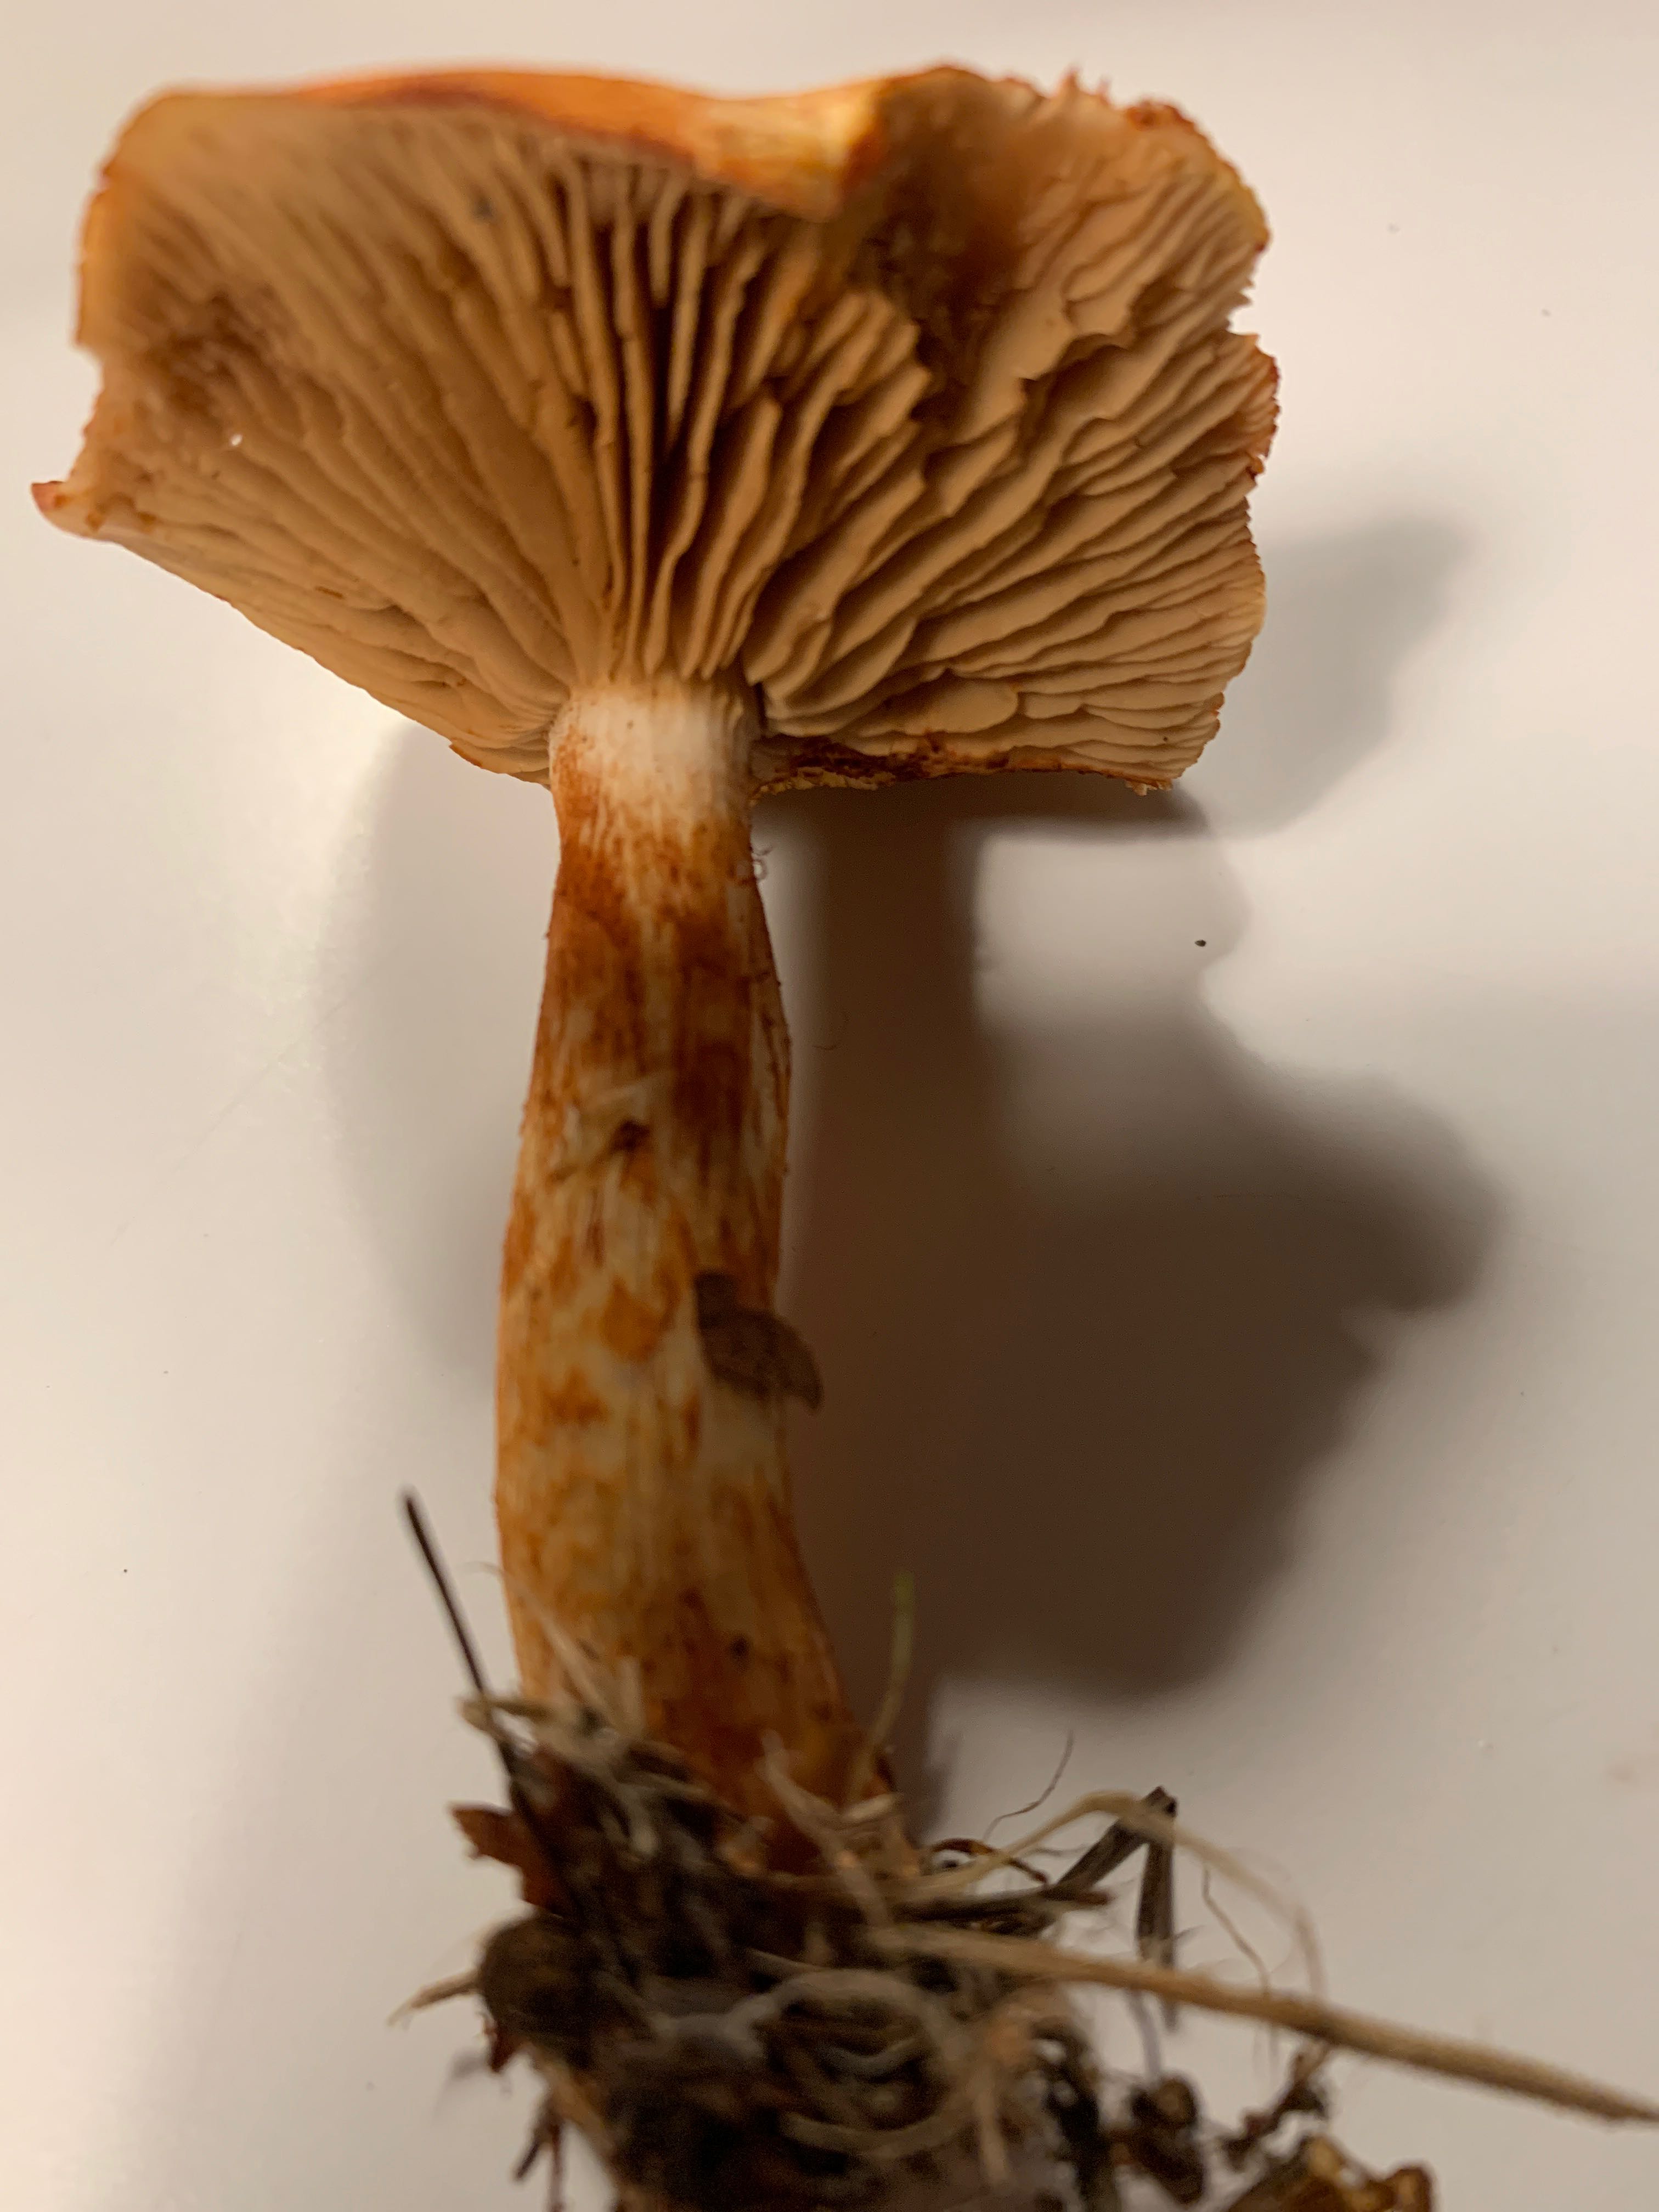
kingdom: Fungi
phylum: Basidiomycota
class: Agaricomycetes
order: Agaricales
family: Cortinariaceae
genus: Cortinarius
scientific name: Cortinarius bolaris
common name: cinnoberskællet slørhat
